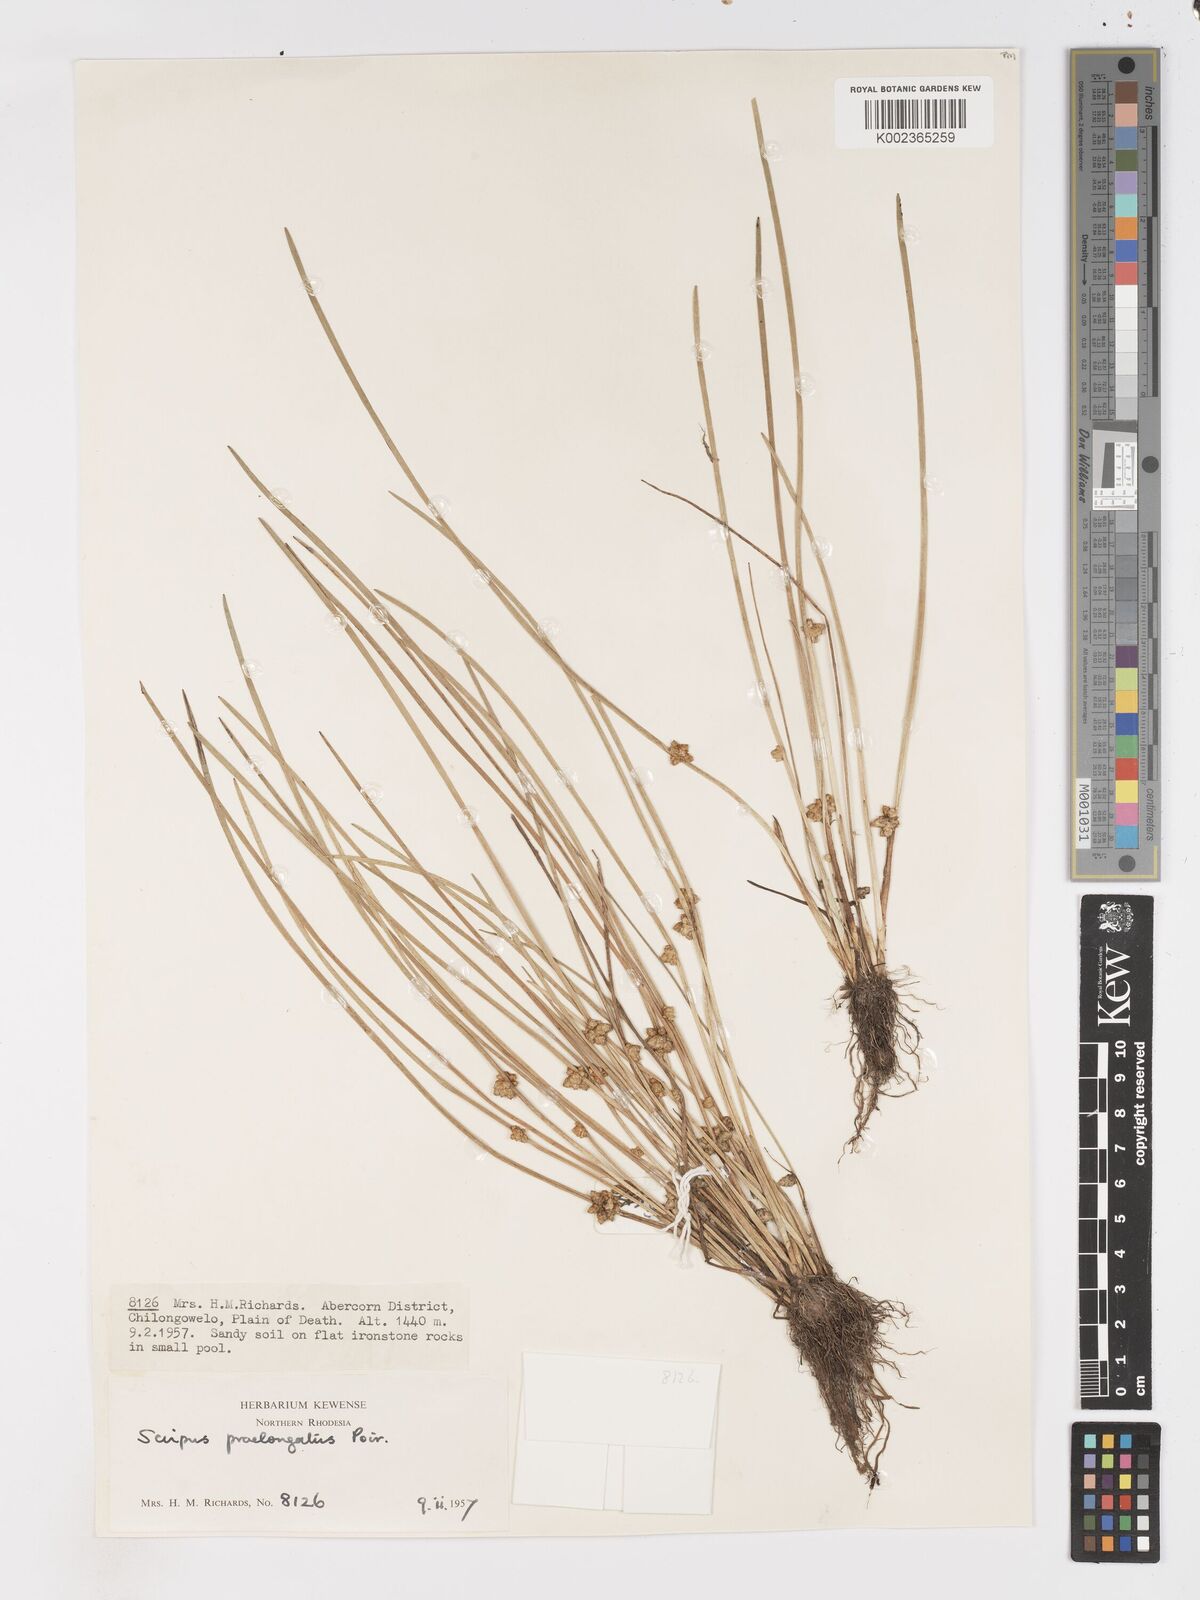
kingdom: Plantae
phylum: Tracheophyta
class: Liliopsida
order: Poales
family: Cyperaceae
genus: Schoenoplectiella
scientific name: Schoenoplectiella senegalensis
